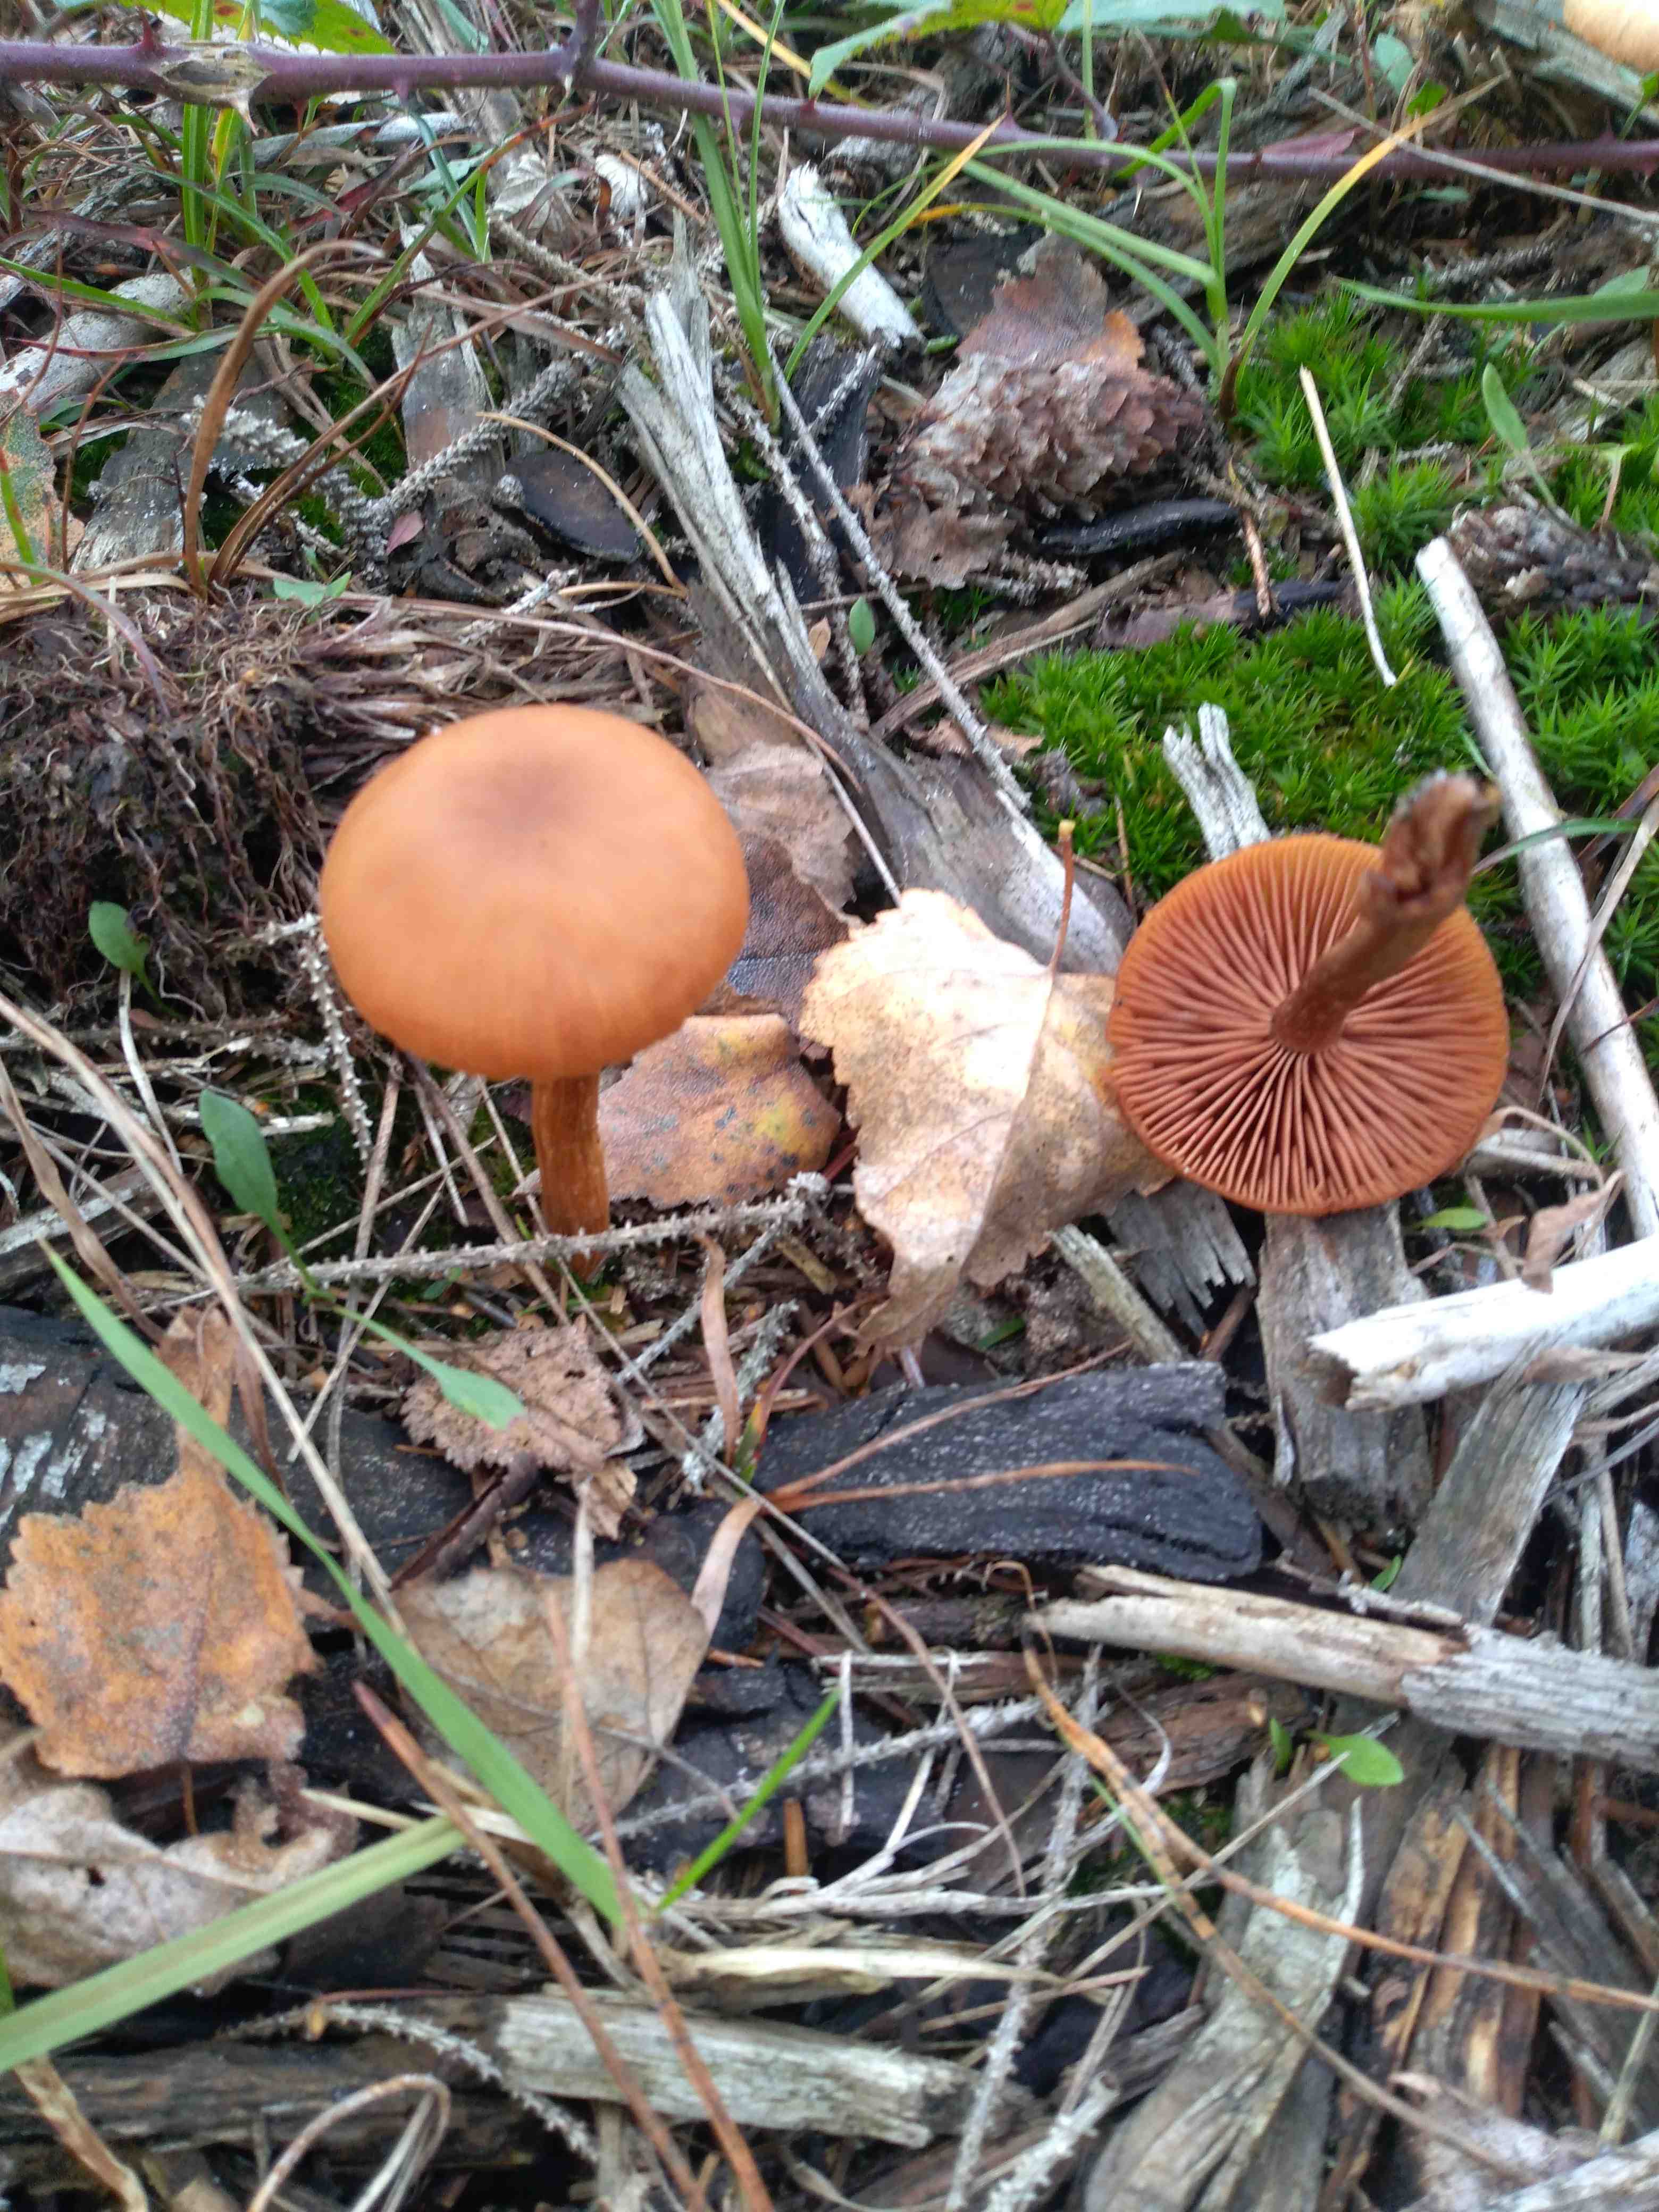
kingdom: Fungi
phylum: Basidiomycota
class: Agaricomycetes
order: Agaricales
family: Hydnangiaceae
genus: Laccaria
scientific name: Laccaria
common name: ametysthat
